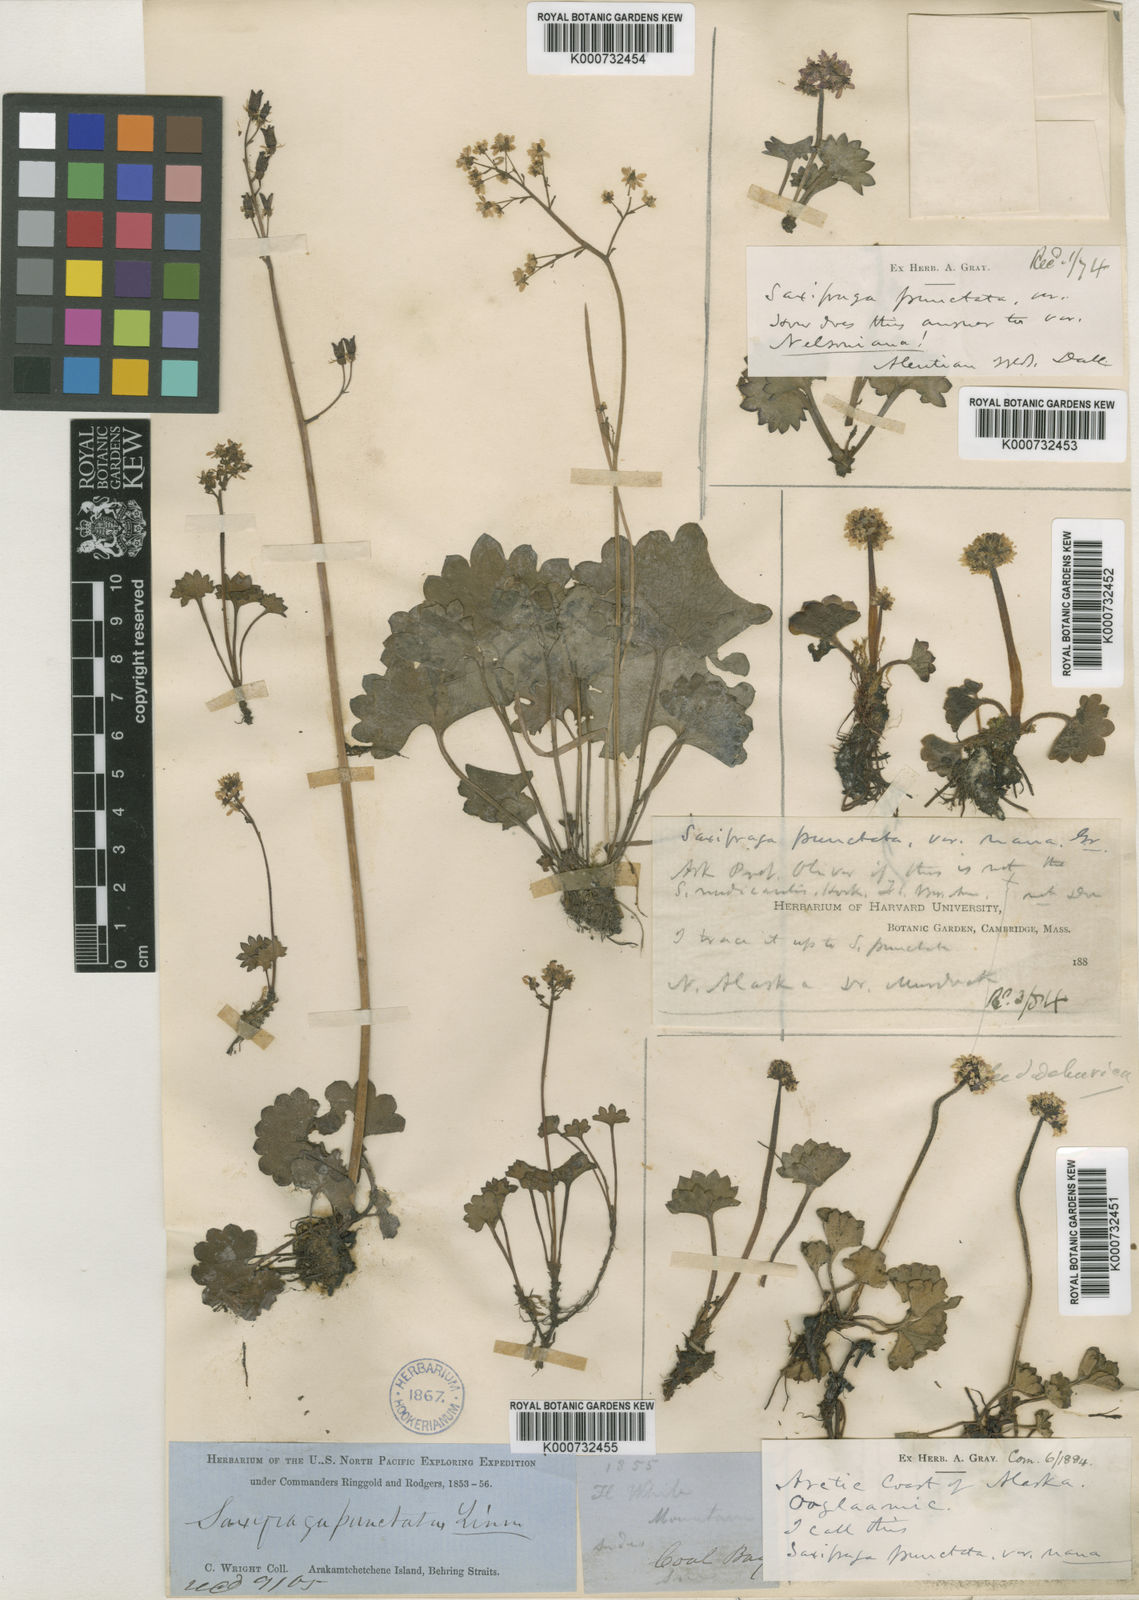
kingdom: Plantae
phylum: Tracheophyta
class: Magnoliopsida
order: Saxifragales
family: Saxifragaceae
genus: Micranthes
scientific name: Micranthes punctata
